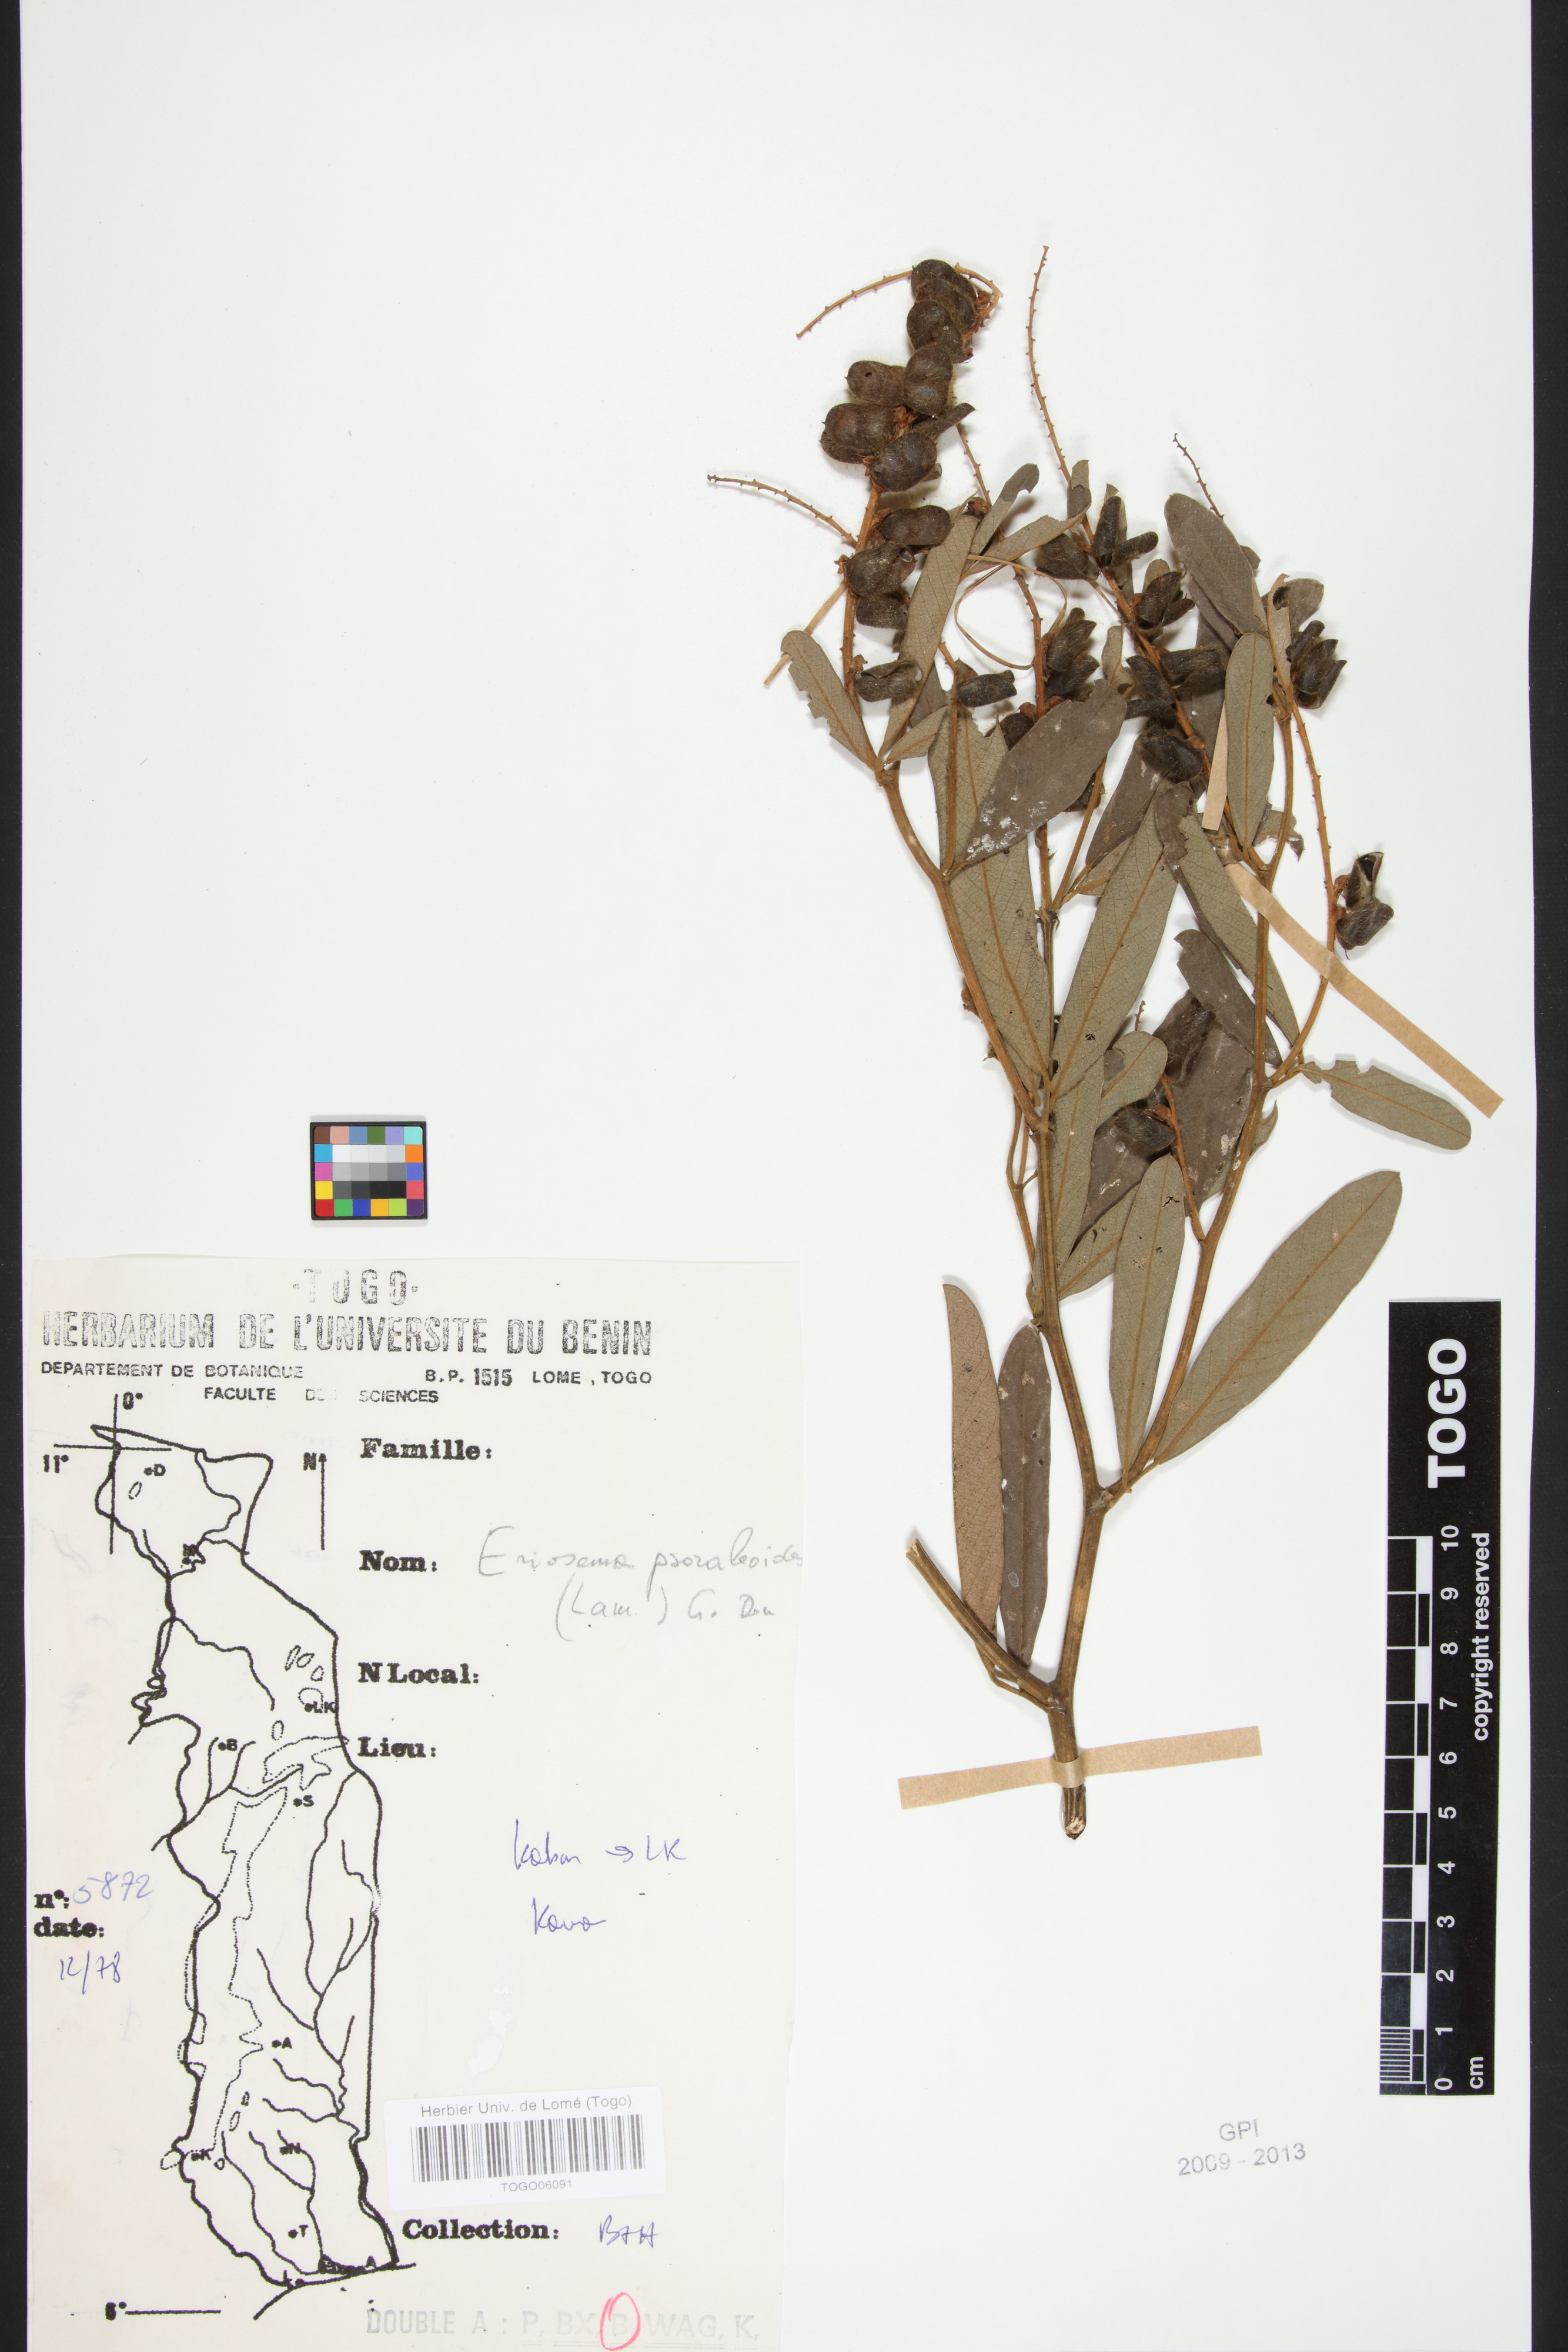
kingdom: Plantae
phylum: Tracheophyta
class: Magnoliopsida
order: Fabales
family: Fabaceae
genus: Eriosema
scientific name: Eriosema psoraleoides
